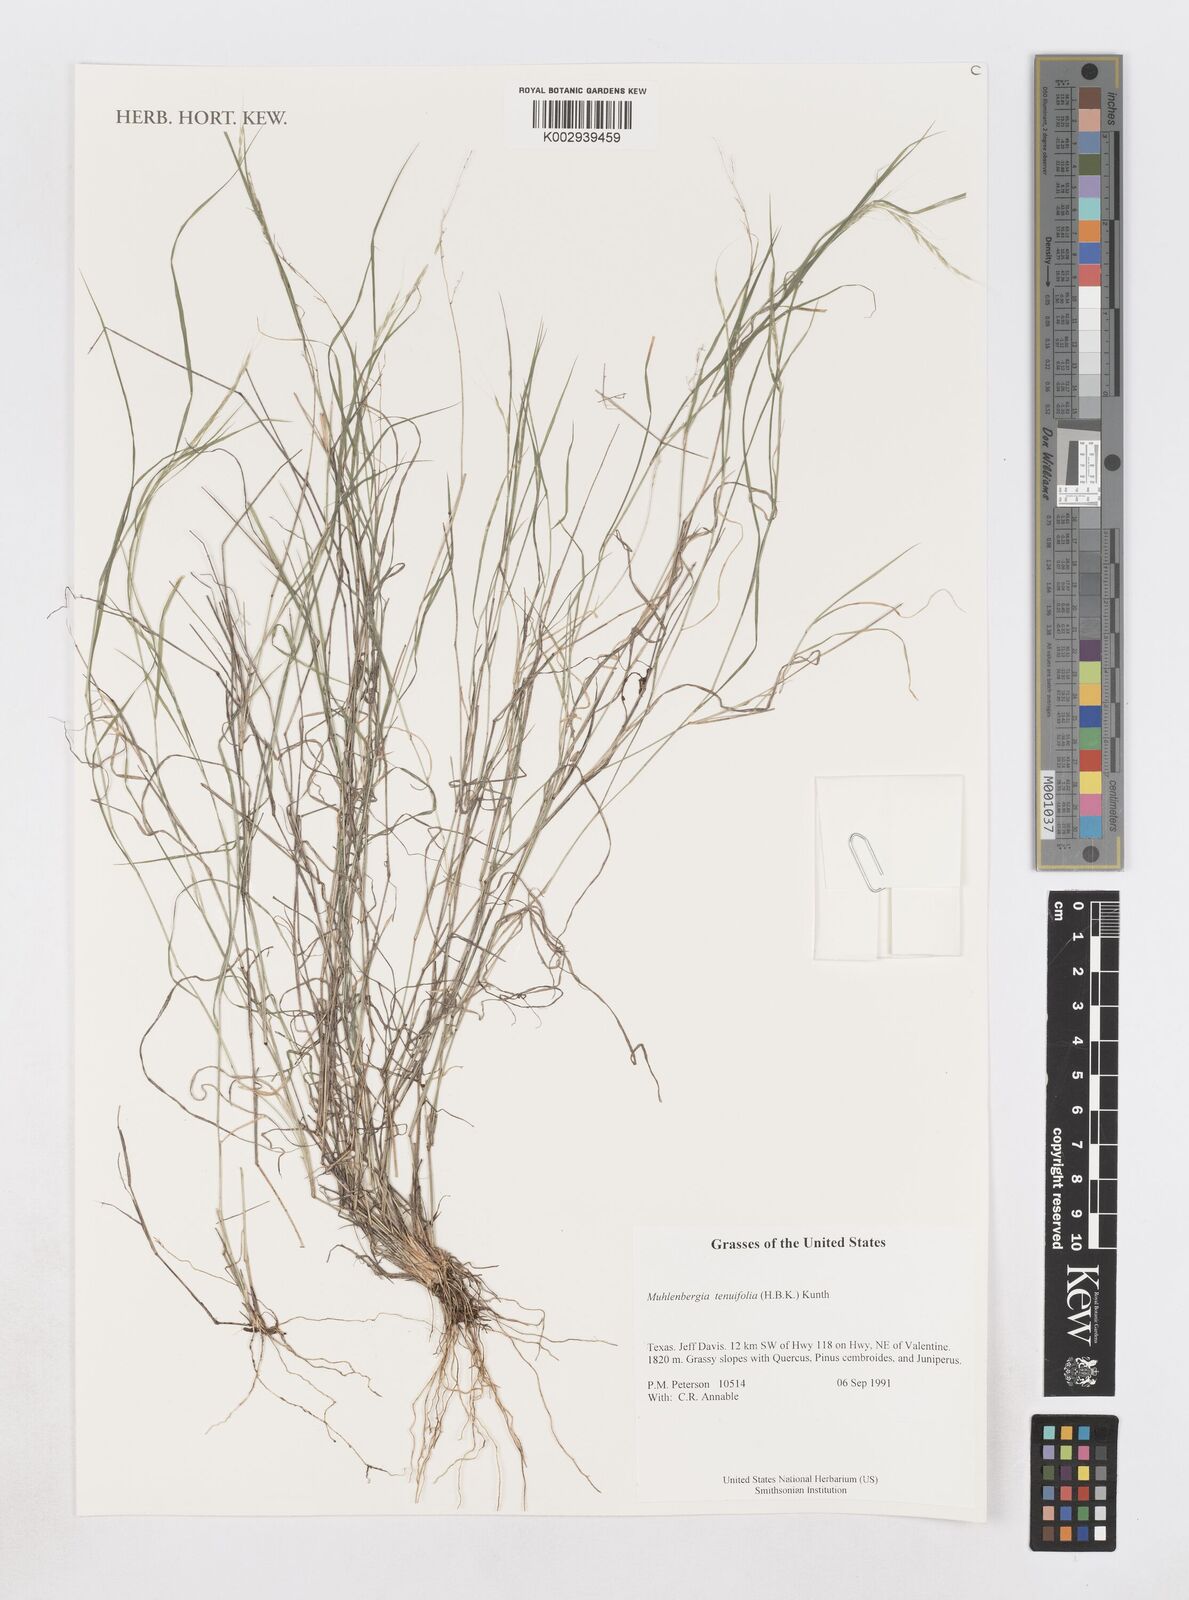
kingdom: Plantae
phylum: Tracheophyta
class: Liliopsida
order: Poales
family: Poaceae
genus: Muhlenbergia
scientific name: Muhlenbergia tenuiflora
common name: Slender muhly
